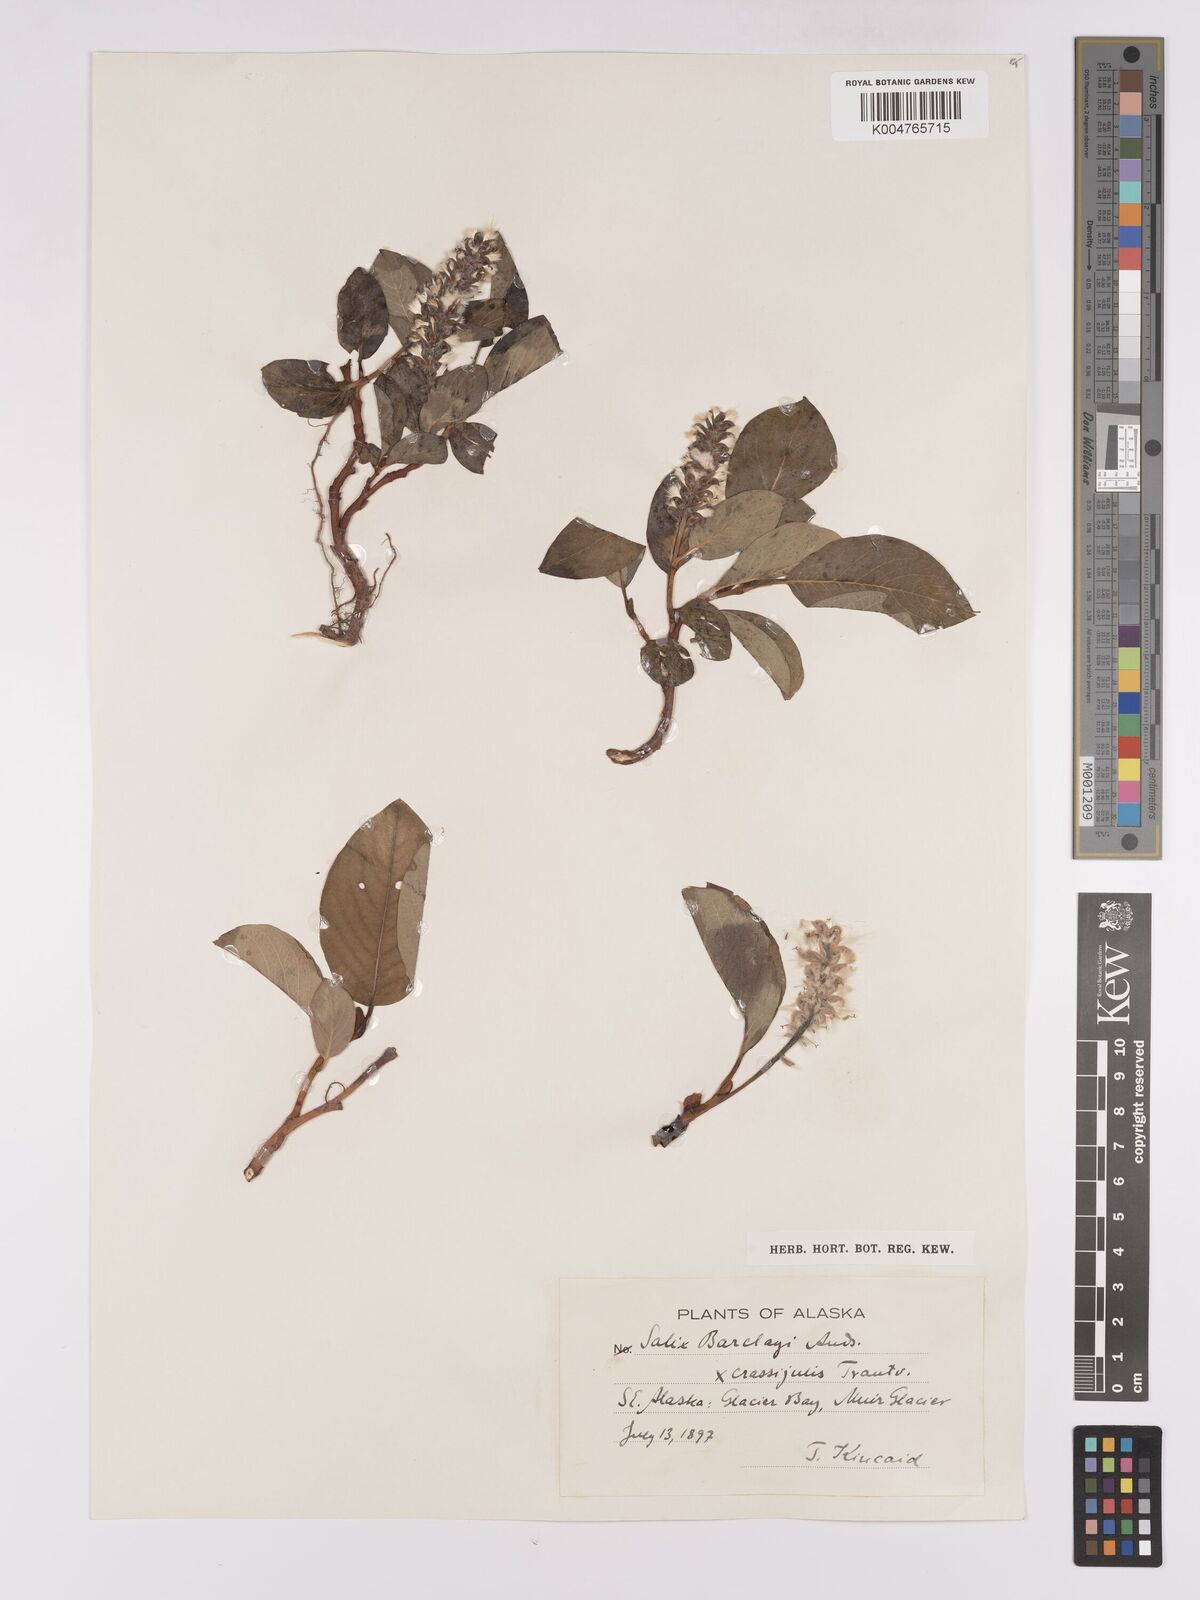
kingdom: Plantae
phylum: Tracheophyta
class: Magnoliopsida
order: Malpighiales
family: Salicaceae
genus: Salix
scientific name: Salix barclayi
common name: Mountain willow
